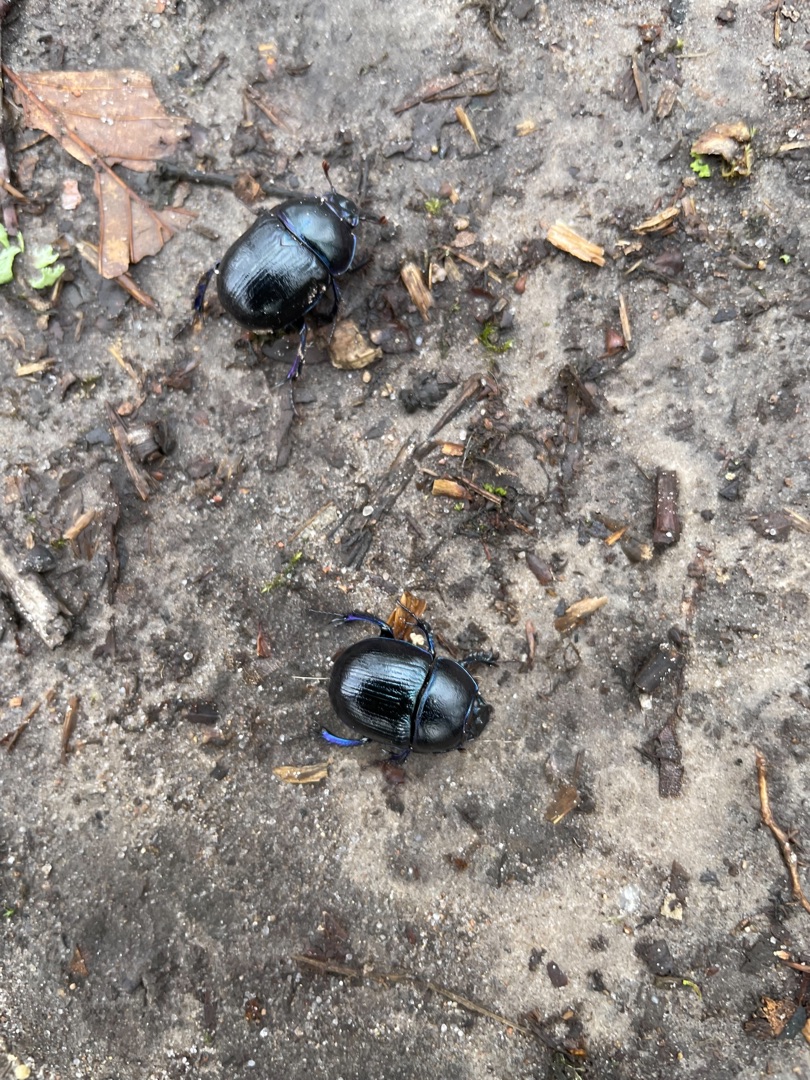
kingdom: Animalia
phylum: Arthropoda
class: Insecta
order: Coleoptera
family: Geotrupidae
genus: Anoplotrupes
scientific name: Anoplotrupes stercorosus
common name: Skovskarnbasse
